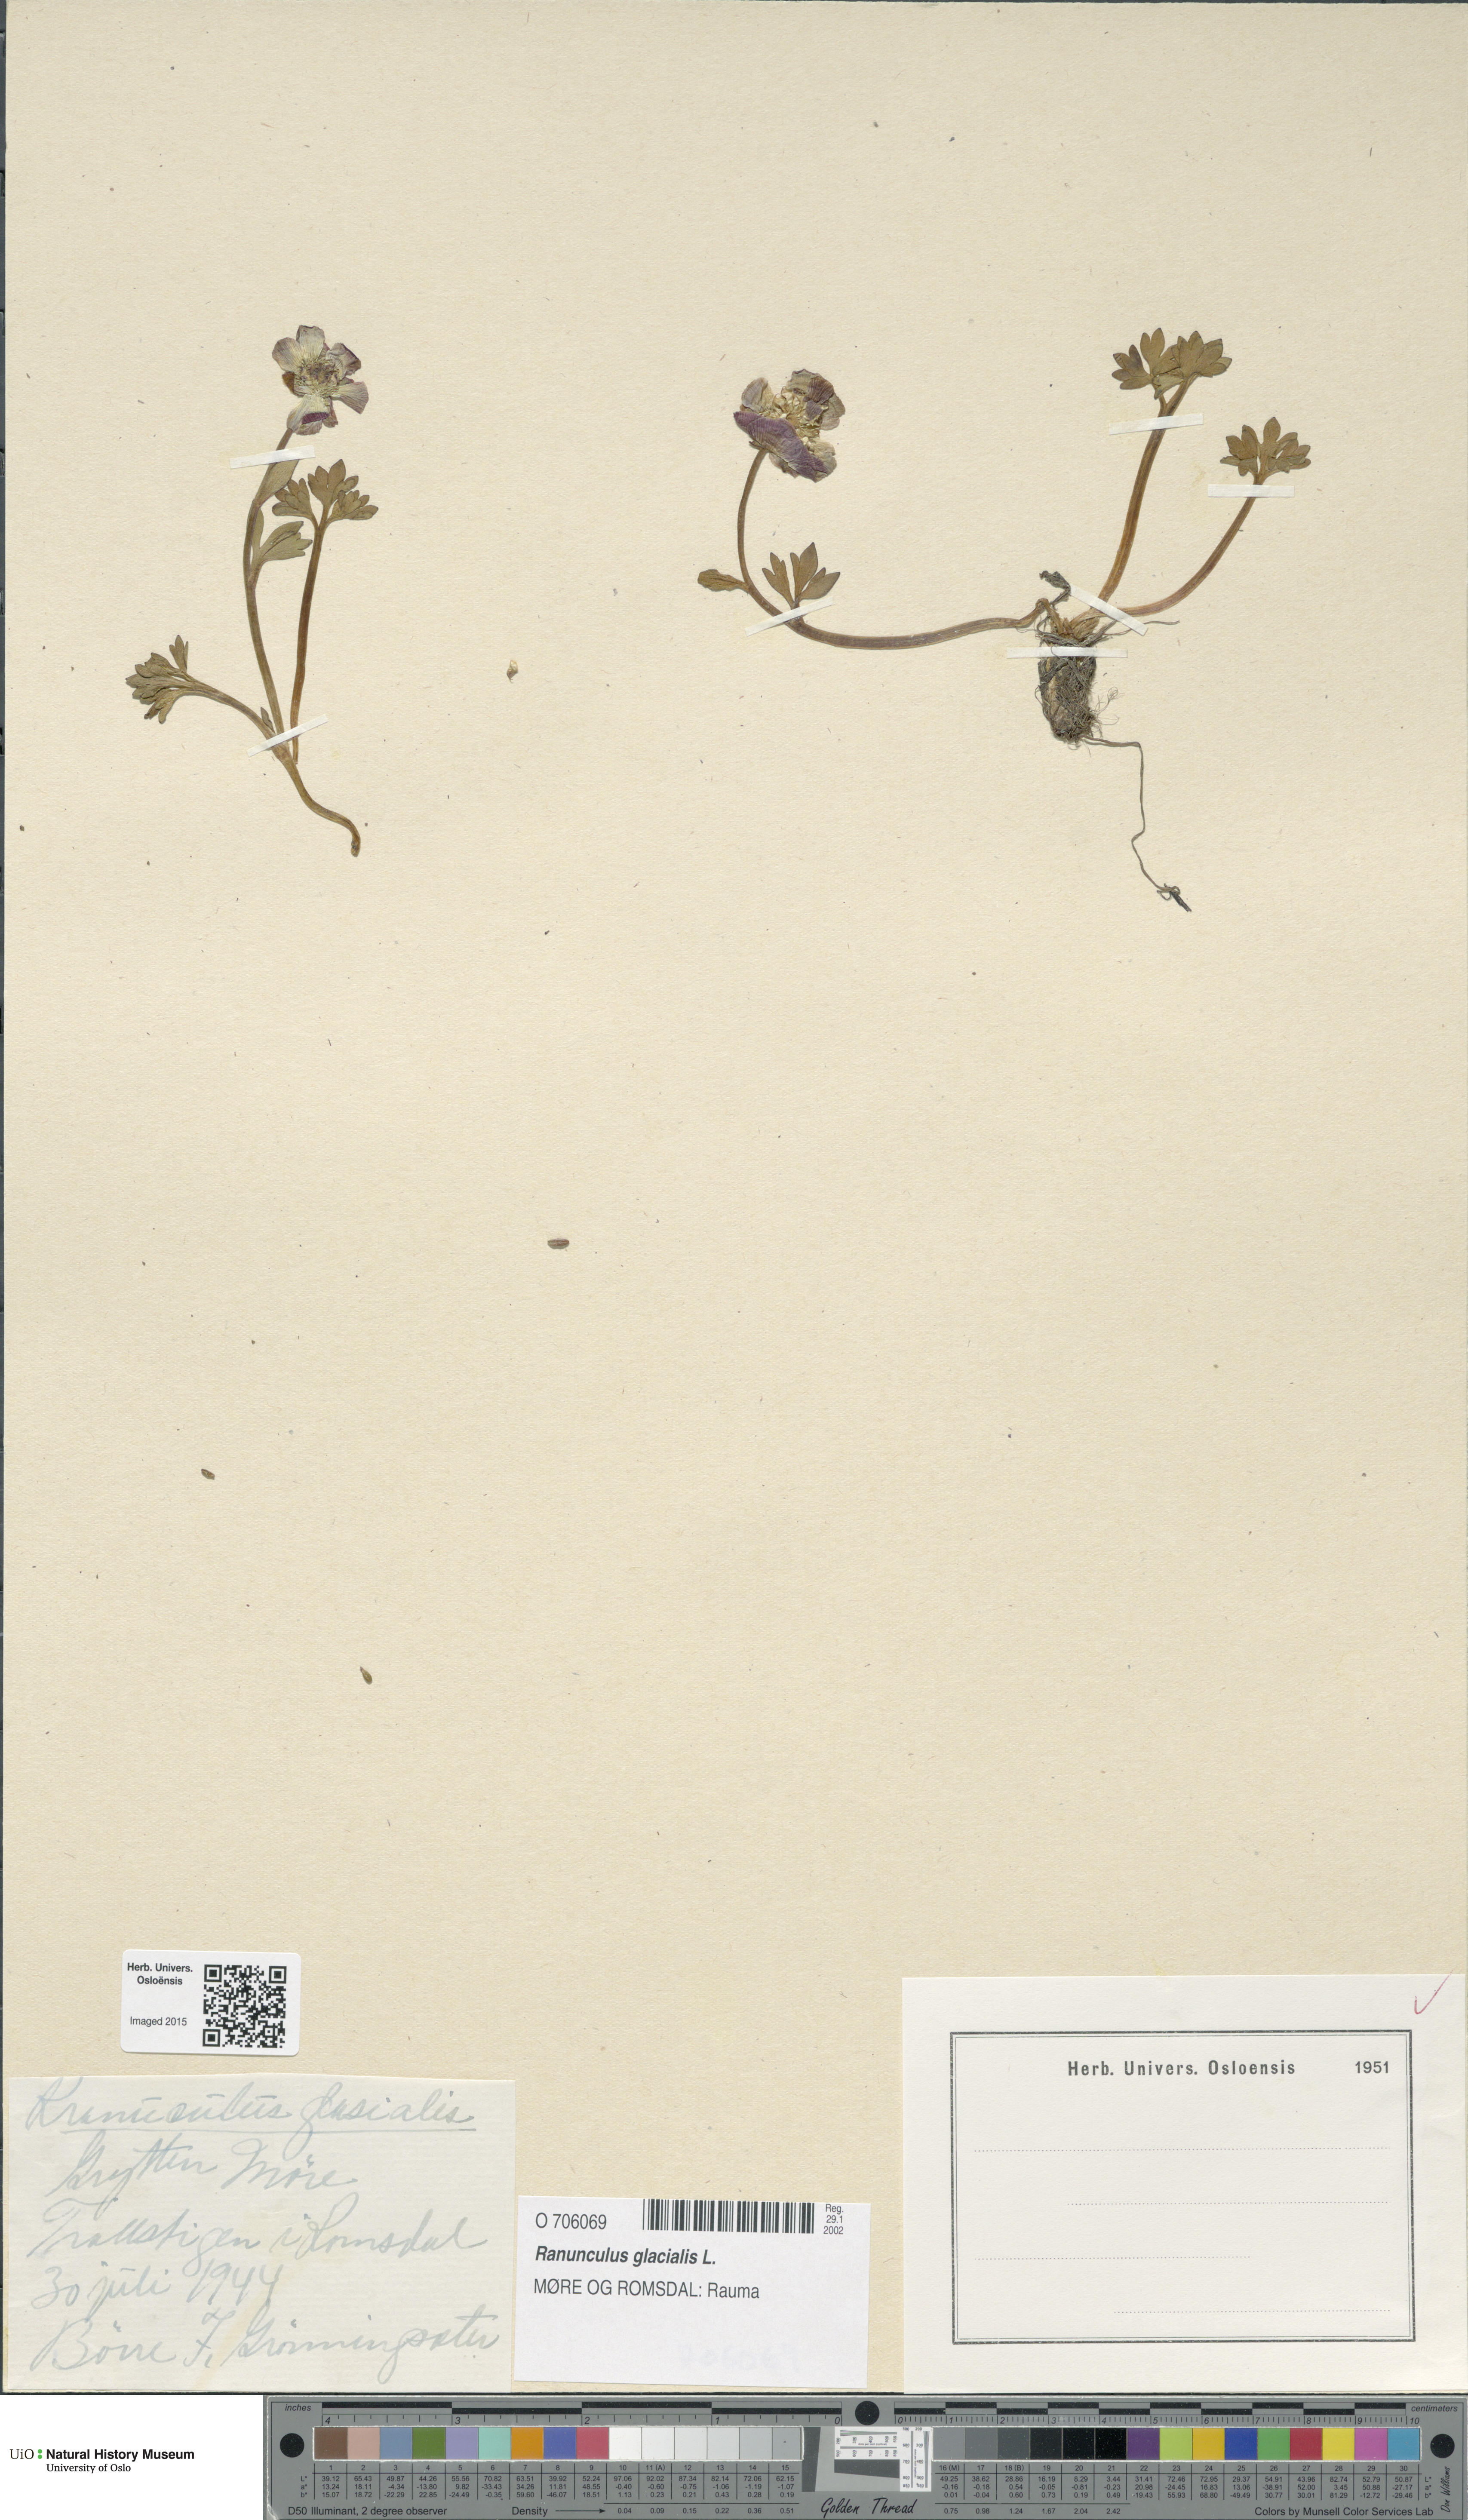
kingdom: Plantae
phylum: Tracheophyta
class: Magnoliopsida
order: Ranunculales
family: Ranunculaceae
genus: Ranunculus
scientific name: Ranunculus glacialis
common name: Glacier buttercup
